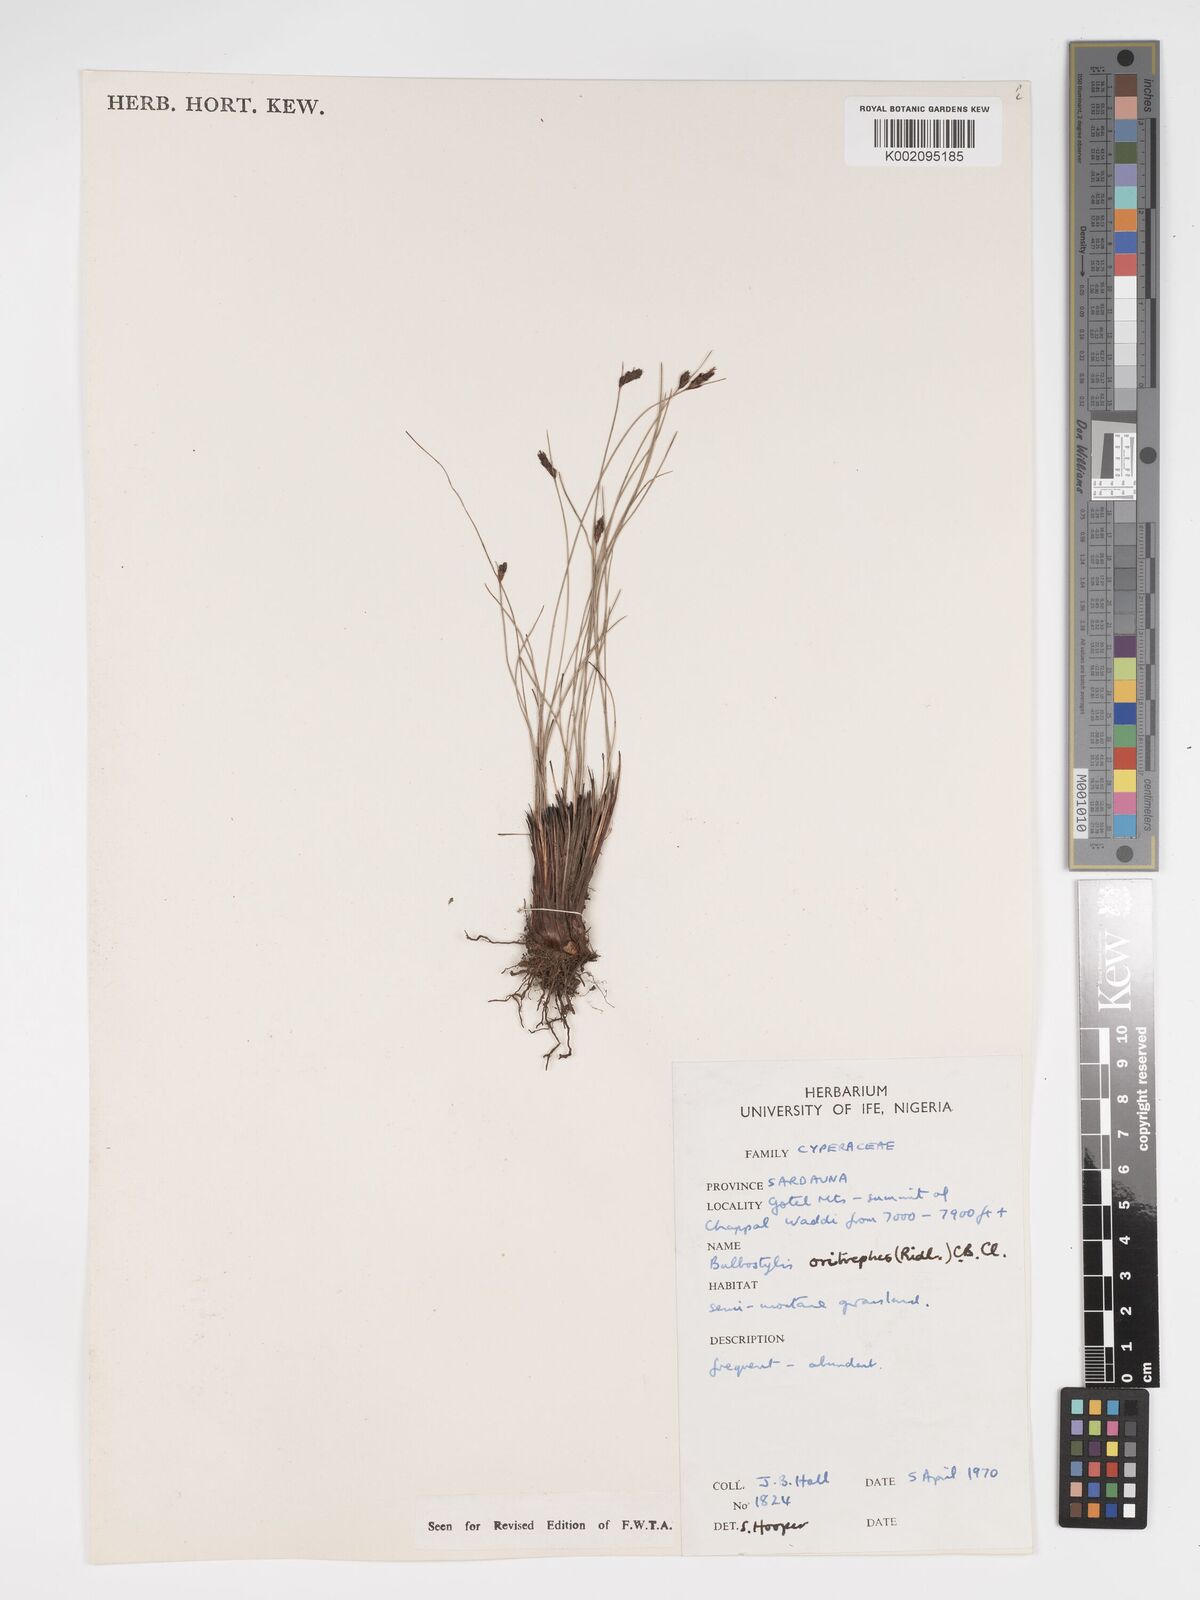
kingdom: Plantae
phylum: Tracheophyta
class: Liliopsida
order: Poales
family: Cyperaceae
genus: Bulbostylis
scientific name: Bulbostylis oritrephes
